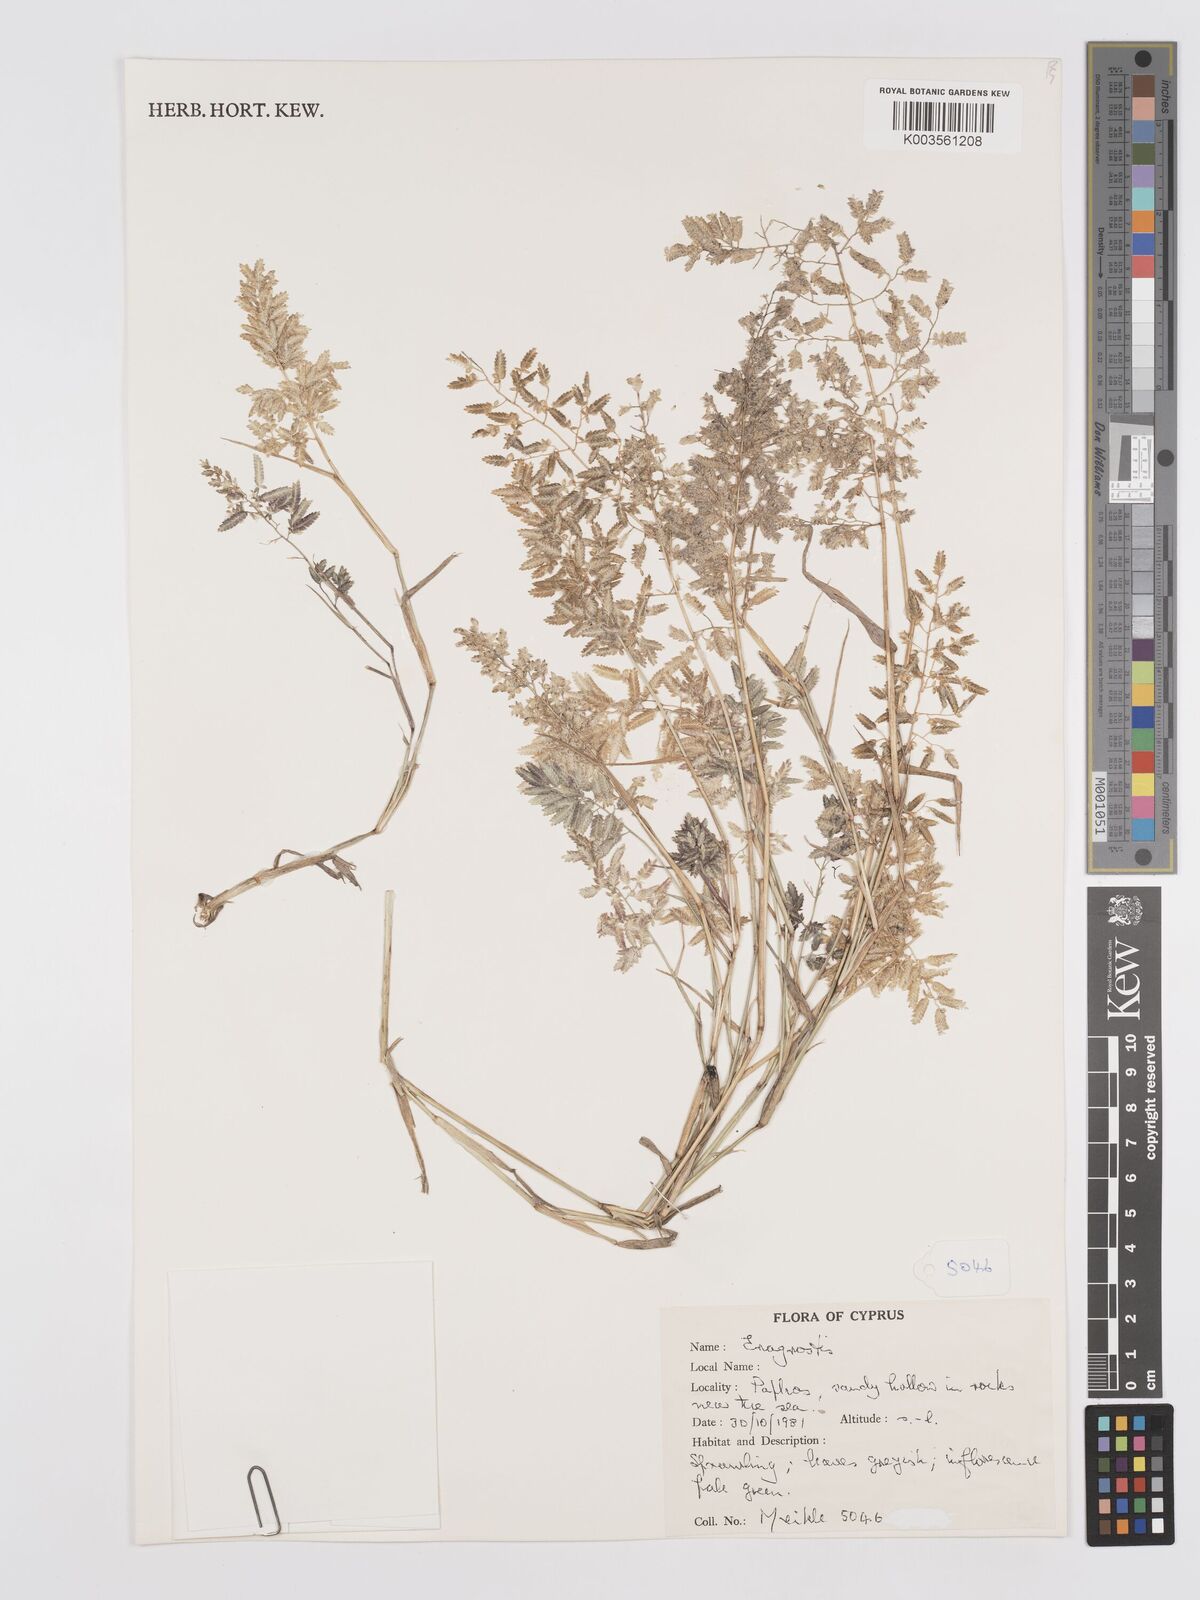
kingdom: Plantae
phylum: Tracheophyta
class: Liliopsida
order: Poales
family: Poaceae
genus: Eragrostis
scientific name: Eragrostis cilianensis
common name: Stinkgrass
